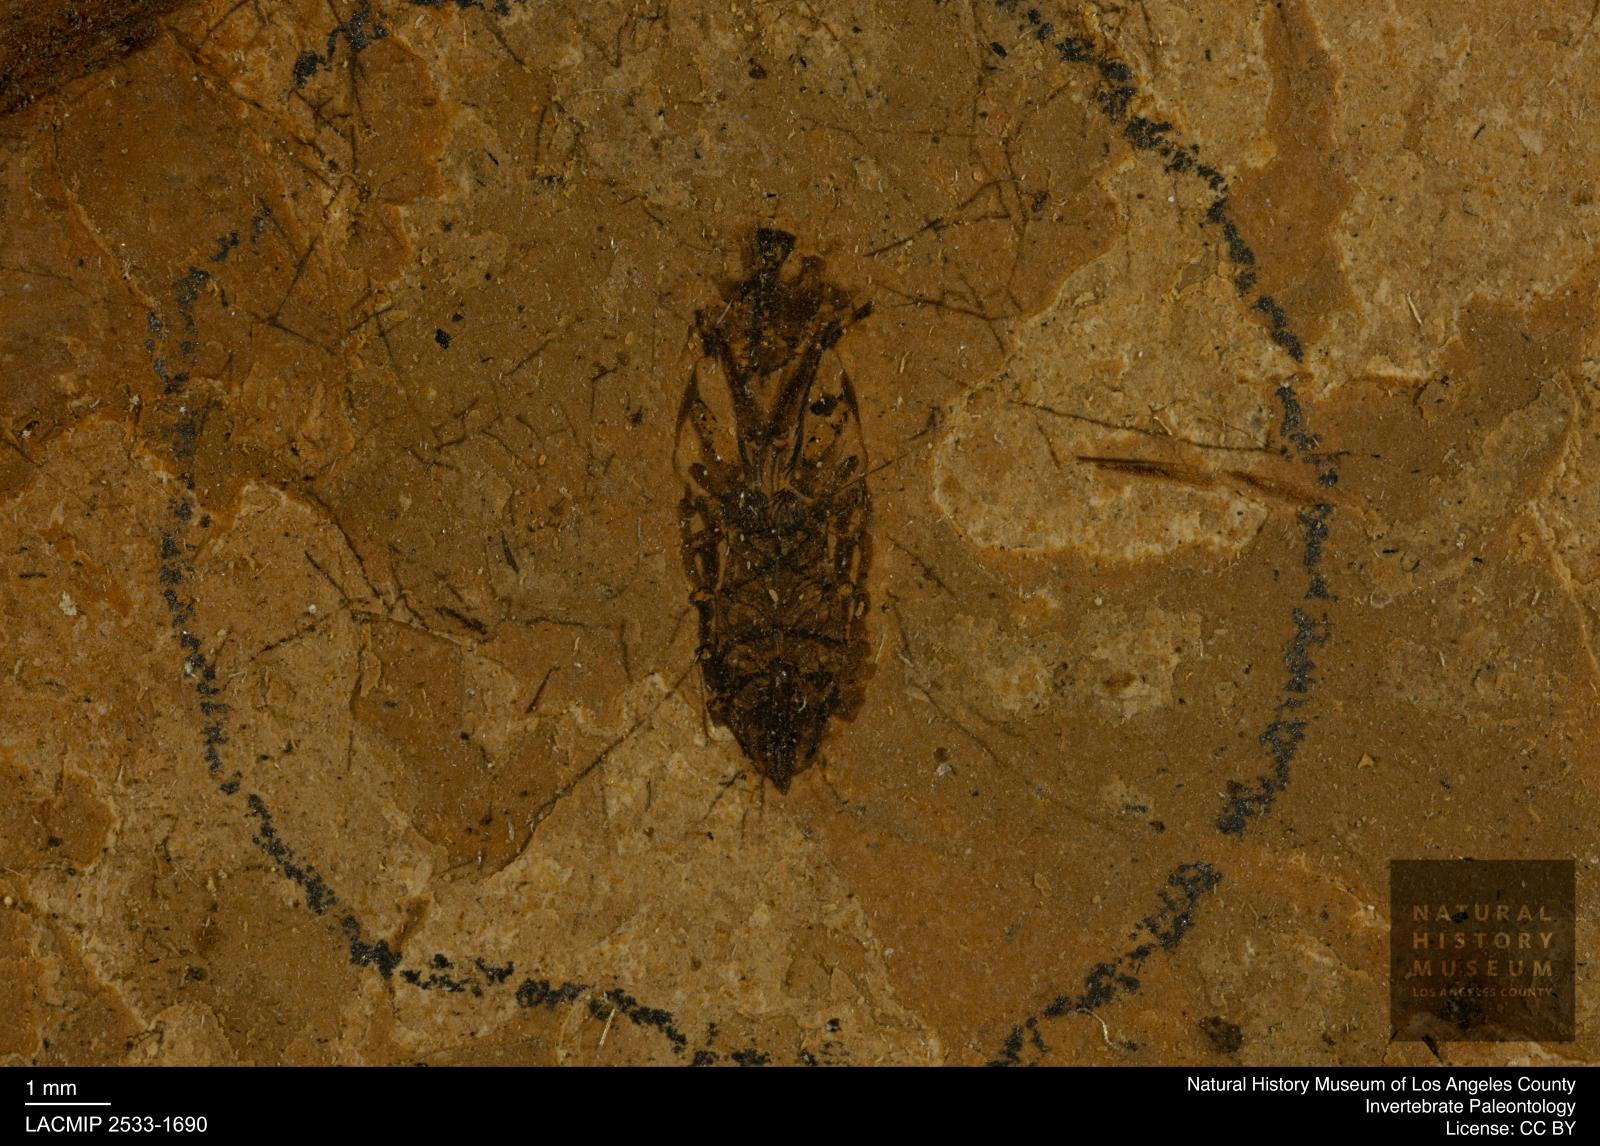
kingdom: Animalia
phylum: Arthropoda
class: Insecta
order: Hemiptera
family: Notonectidae
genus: Notonecta
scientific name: Notonecta
